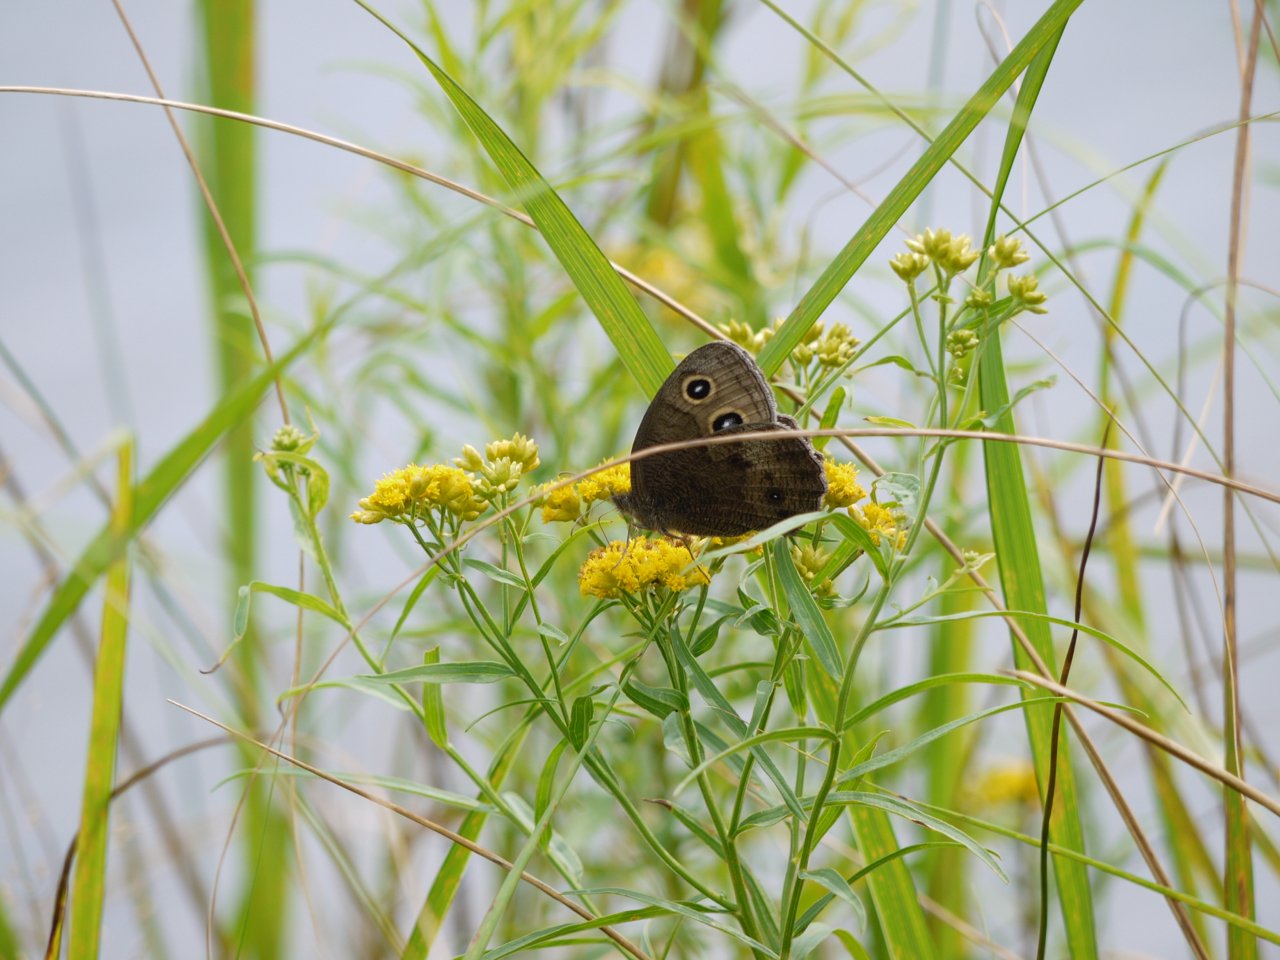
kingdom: Animalia
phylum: Arthropoda
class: Insecta
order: Lepidoptera
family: Nymphalidae
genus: Cercyonis
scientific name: Cercyonis pegala
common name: Common Wood-Nymph
